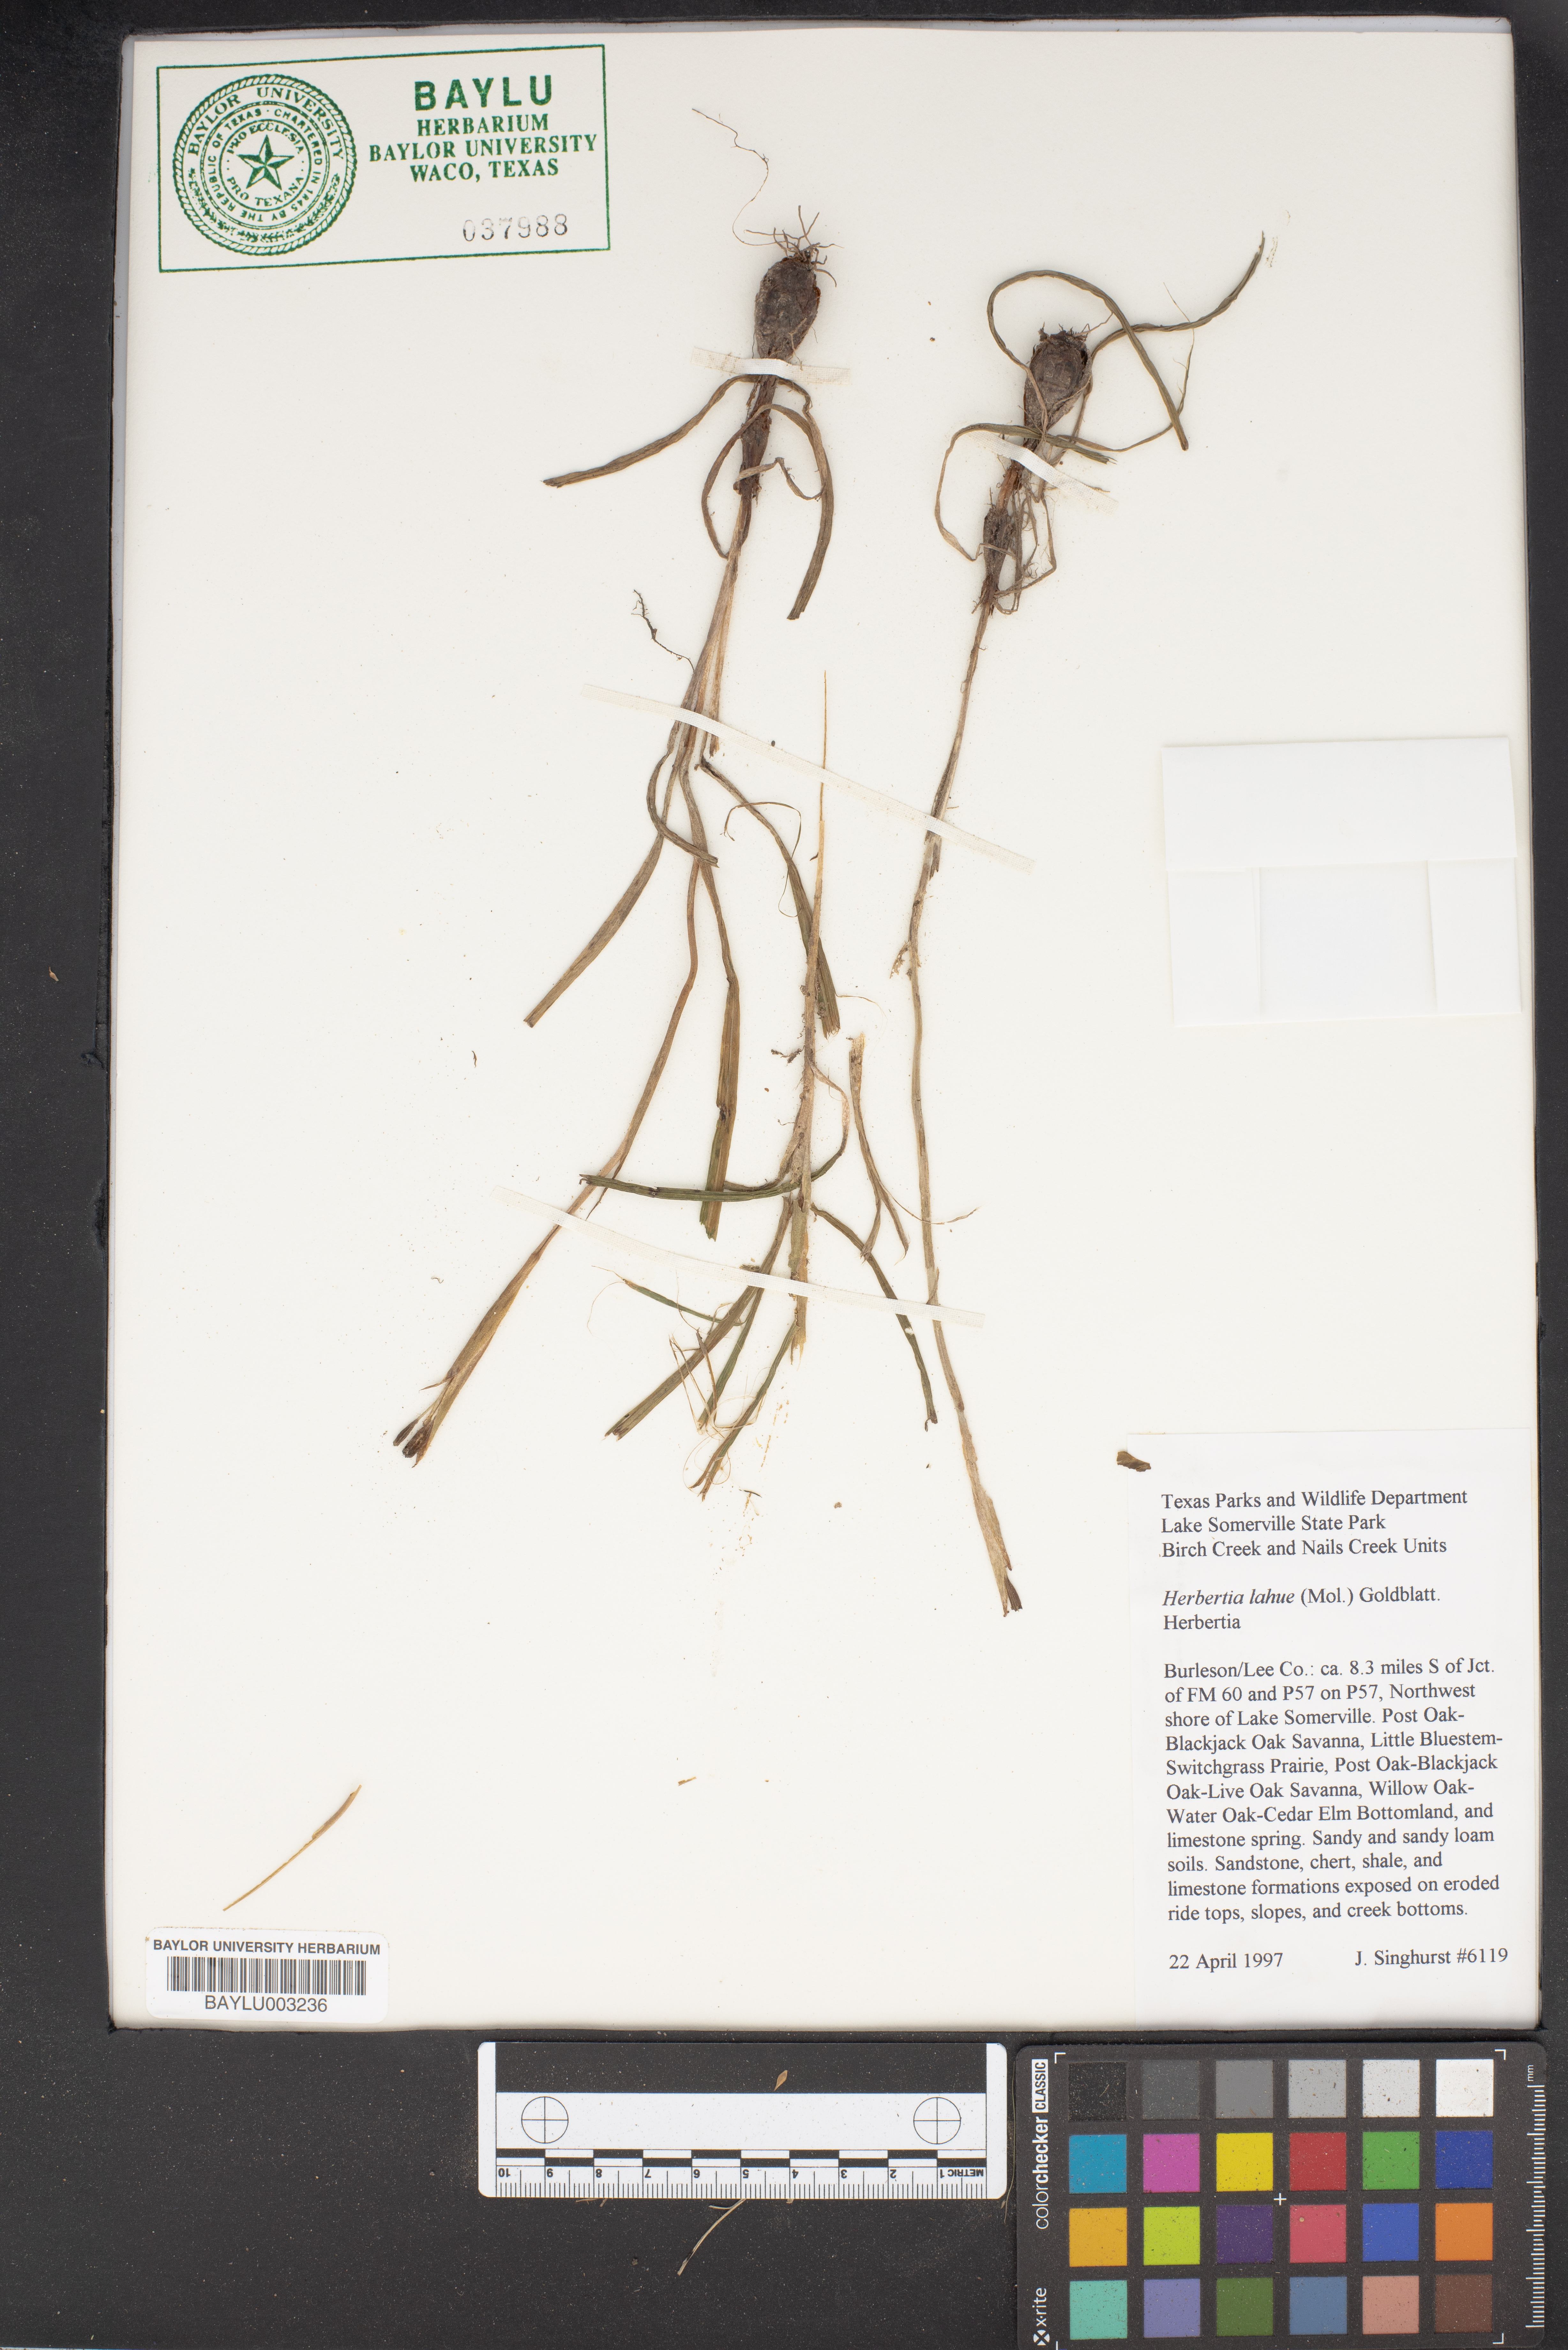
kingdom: Plantae
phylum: Tracheophyta
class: Liliopsida
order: Asparagales
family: Iridaceae
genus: Herbertia
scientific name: Herbertia lahue
